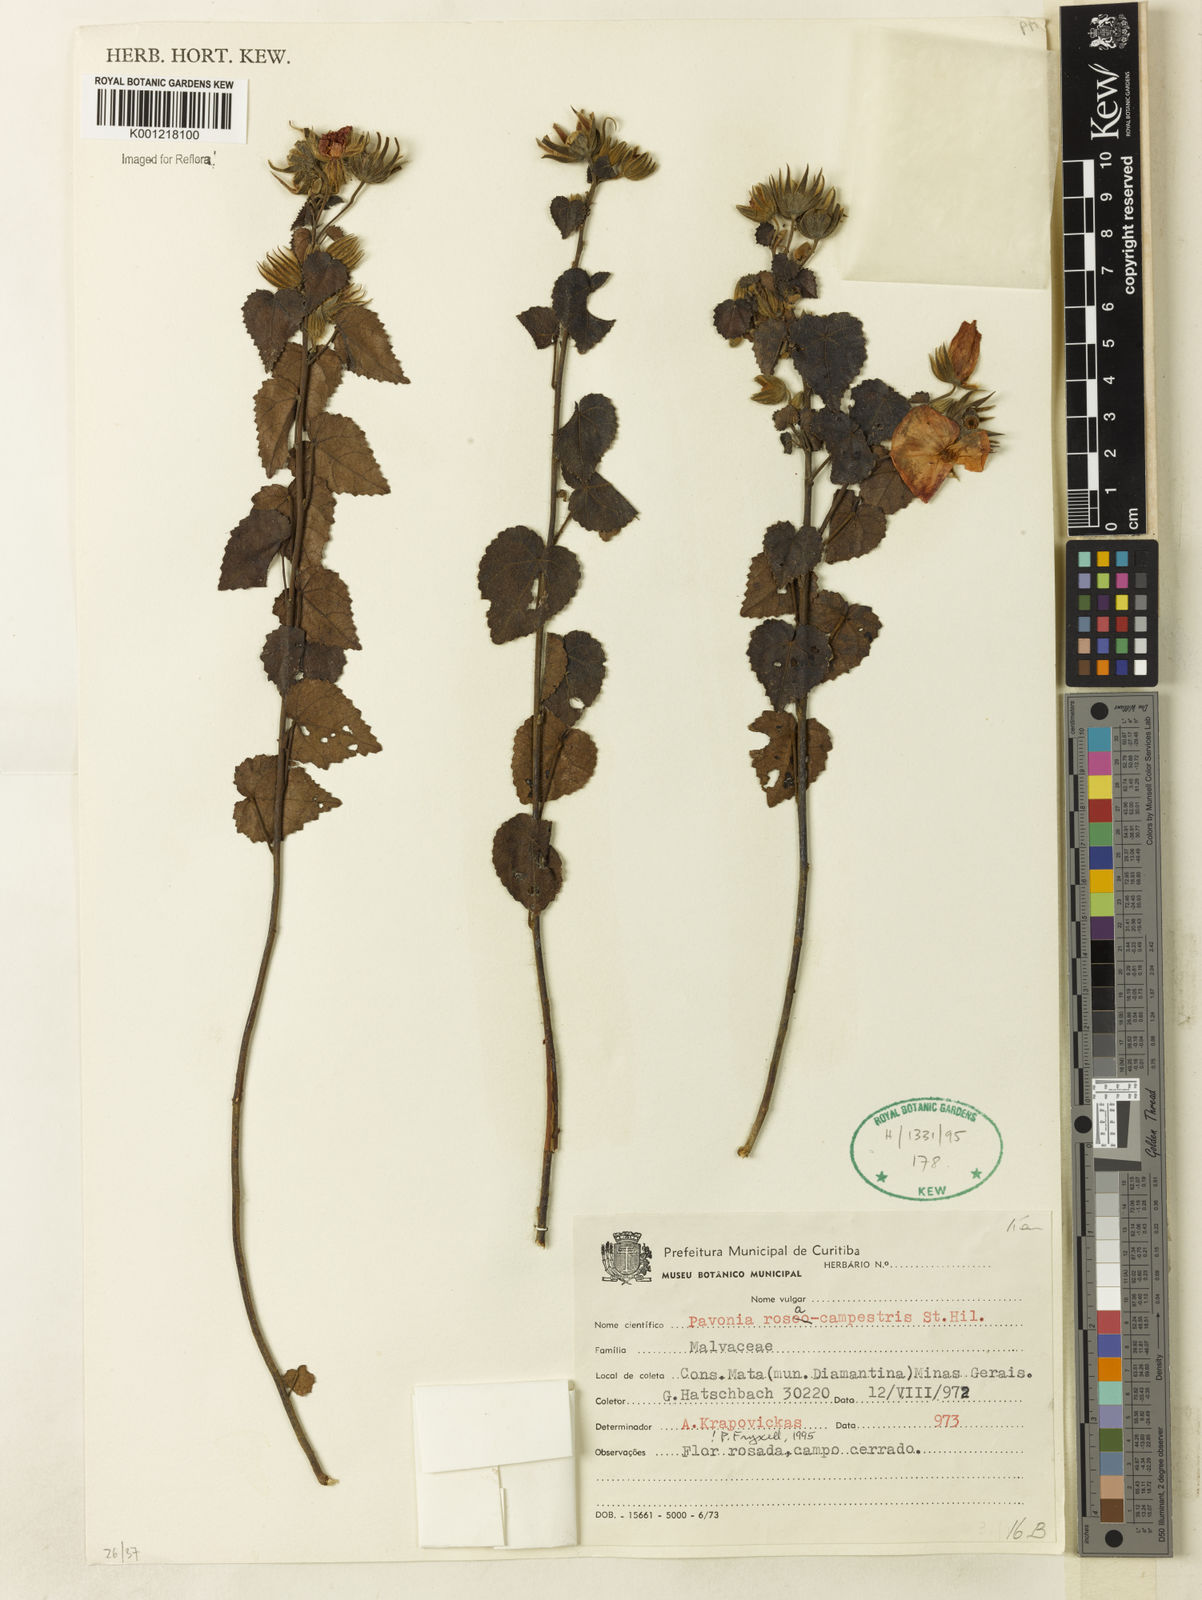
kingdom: Plantae
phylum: Tracheophyta
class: Magnoliopsida
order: Malvales
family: Malvaceae
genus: Pavonia
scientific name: Pavonia rosa-campestris
